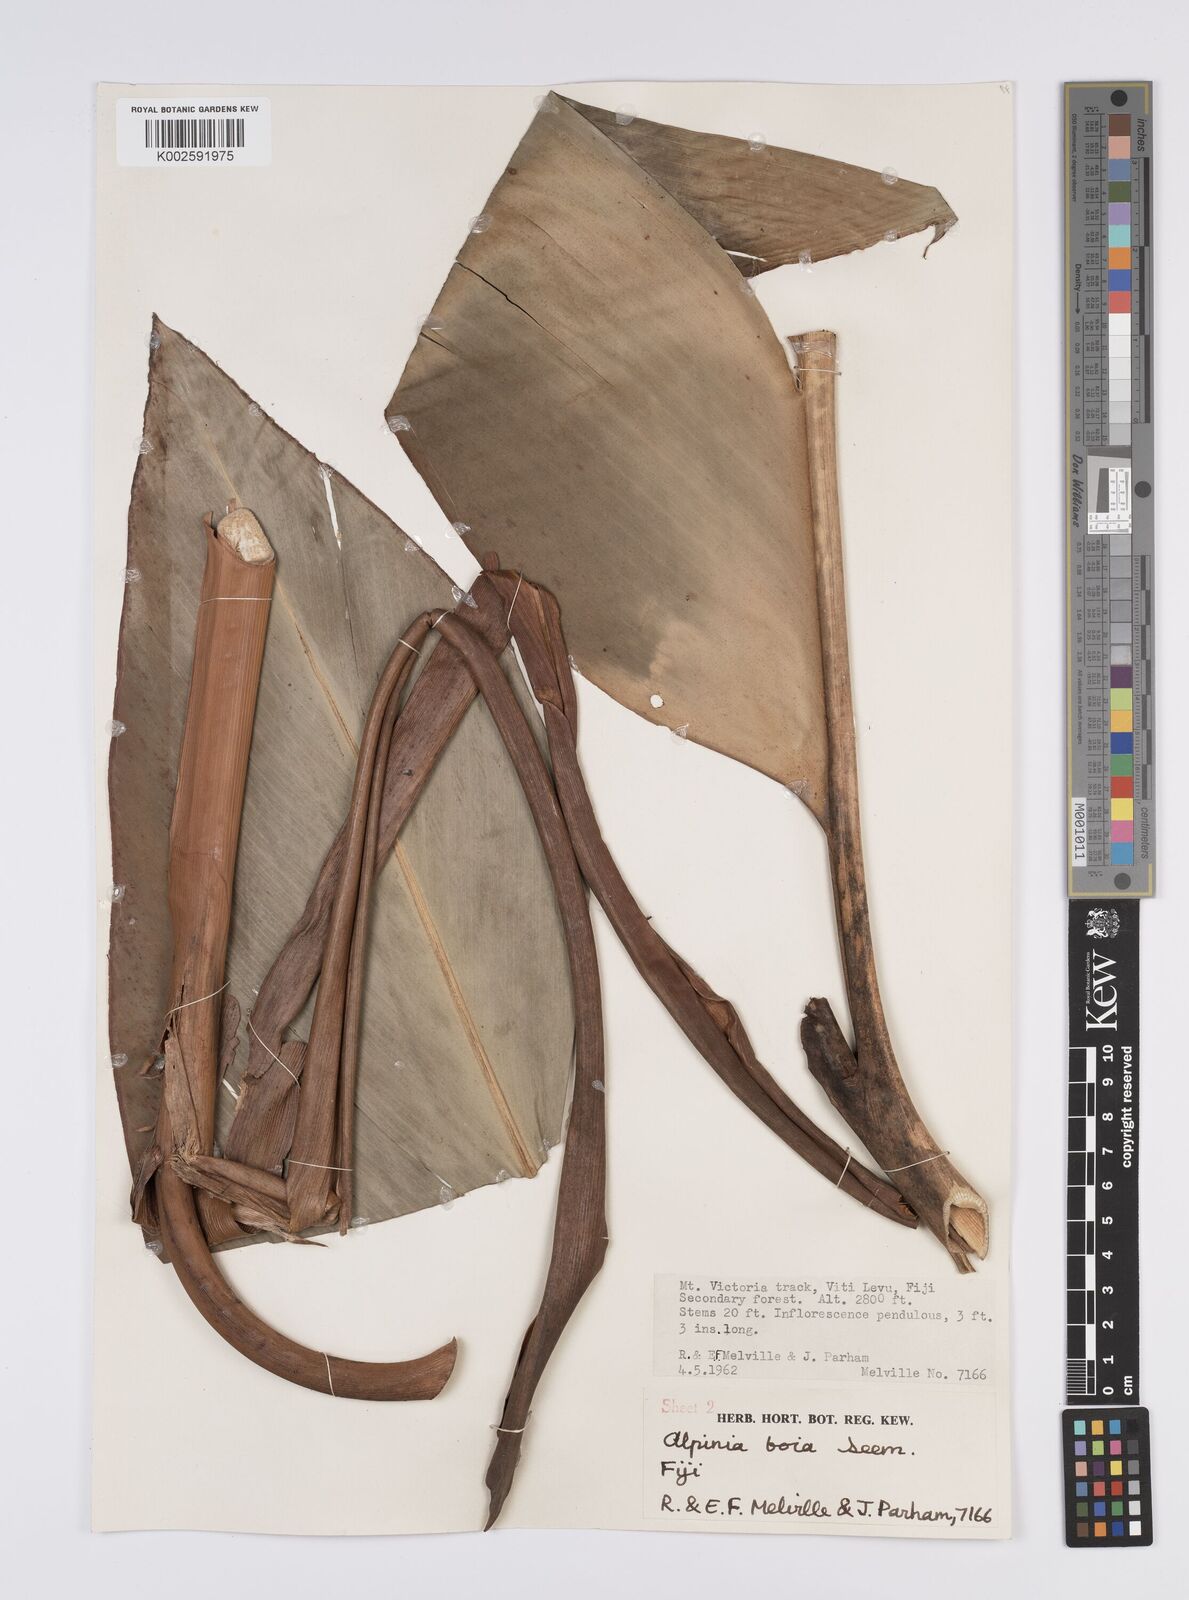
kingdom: Plantae
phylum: Tracheophyta
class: Liliopsida
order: Zingiberales
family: Zingiberaceae
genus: Alpinia
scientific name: Alpinia boia
